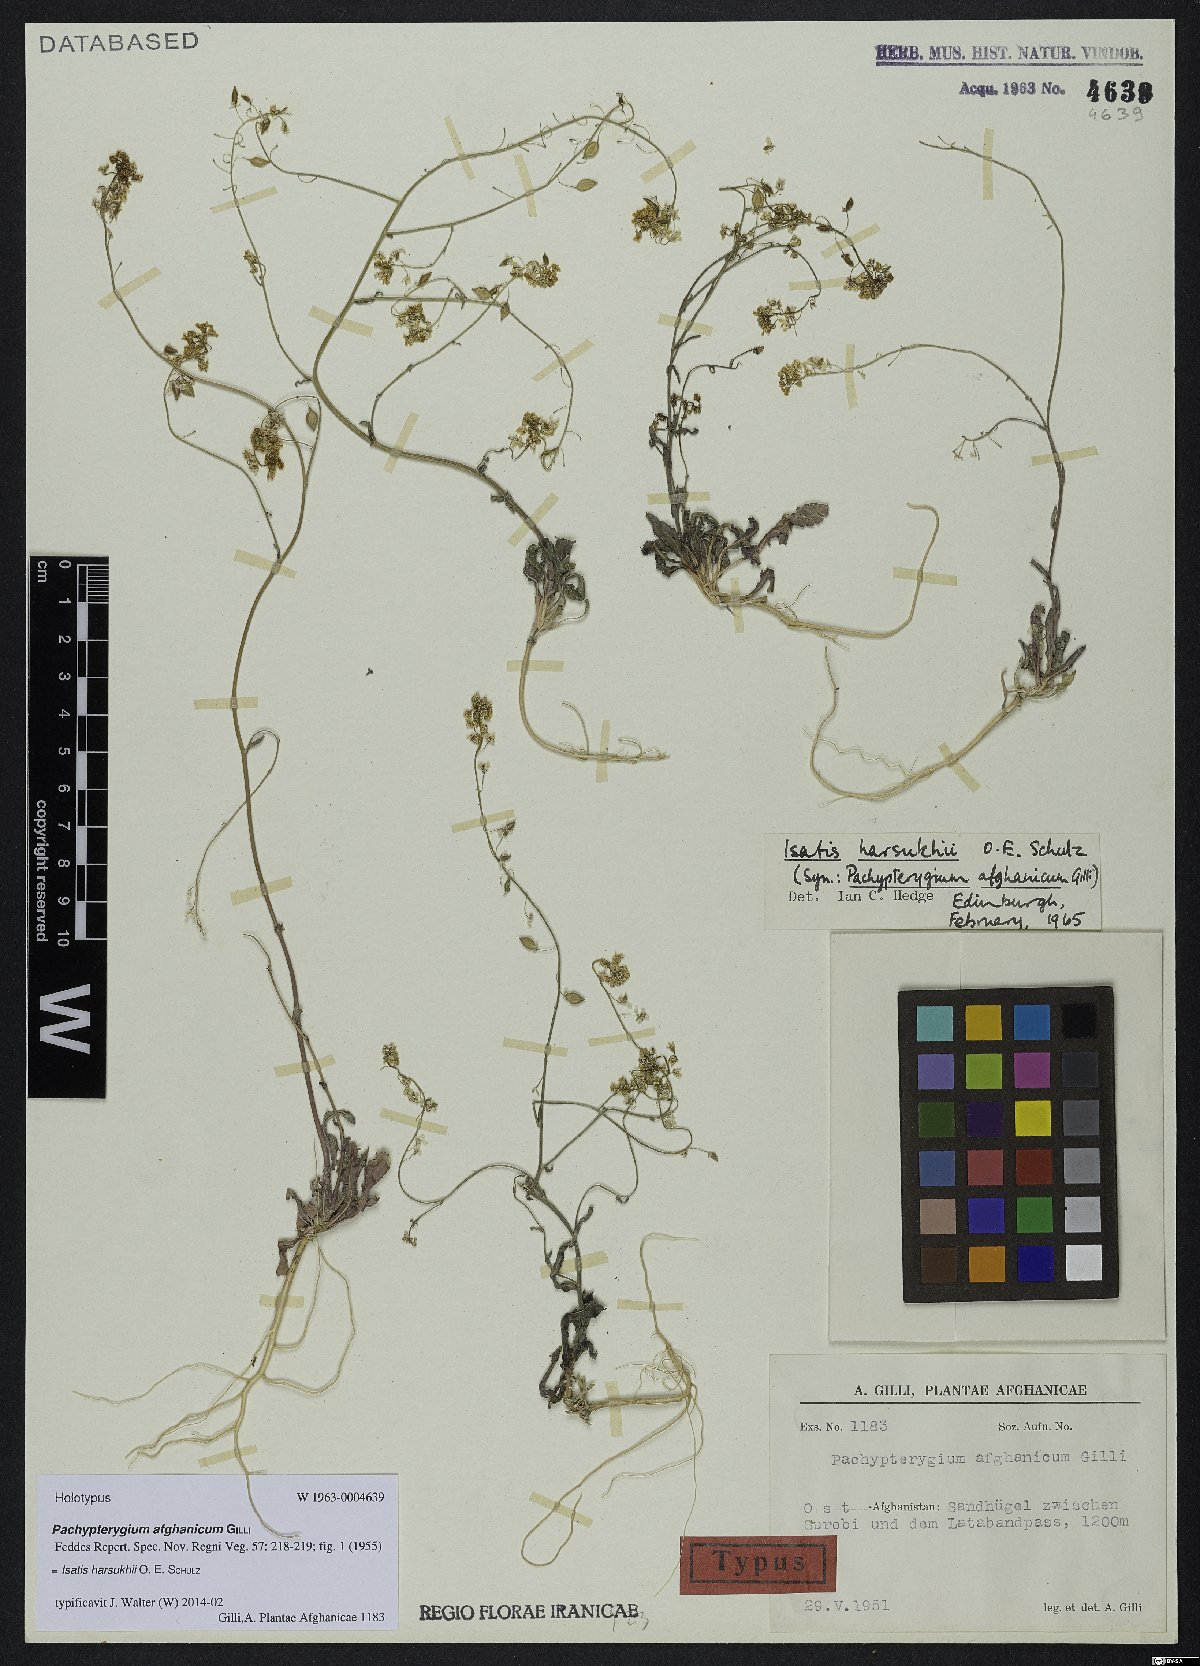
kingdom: Plantae
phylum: Tracheophyta
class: Magnoliopsida
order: Brassicales
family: Brassicaceae
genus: Isatis
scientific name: Isatis harsukhii
